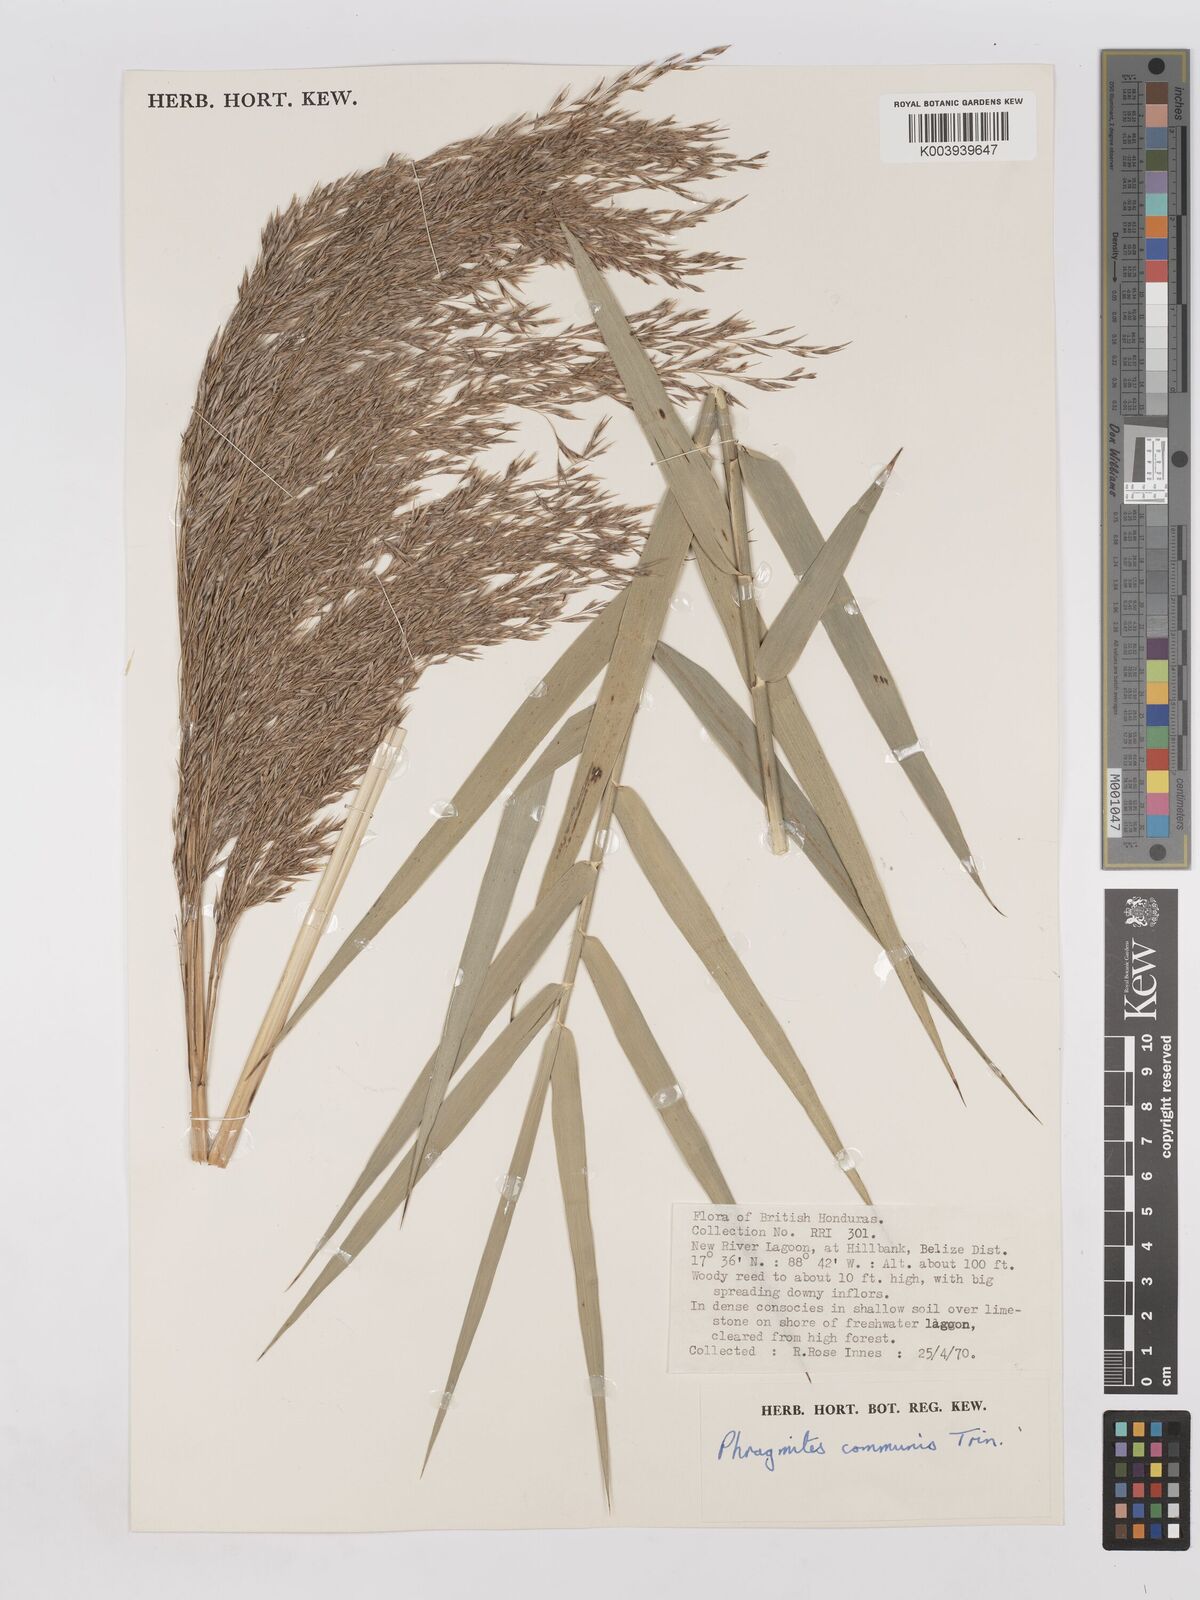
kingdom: Plantae
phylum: Tracheophyta
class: Liliopsida
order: Poales
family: Poaceae
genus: Phragmites
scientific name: Phragmites australis
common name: Common reed
